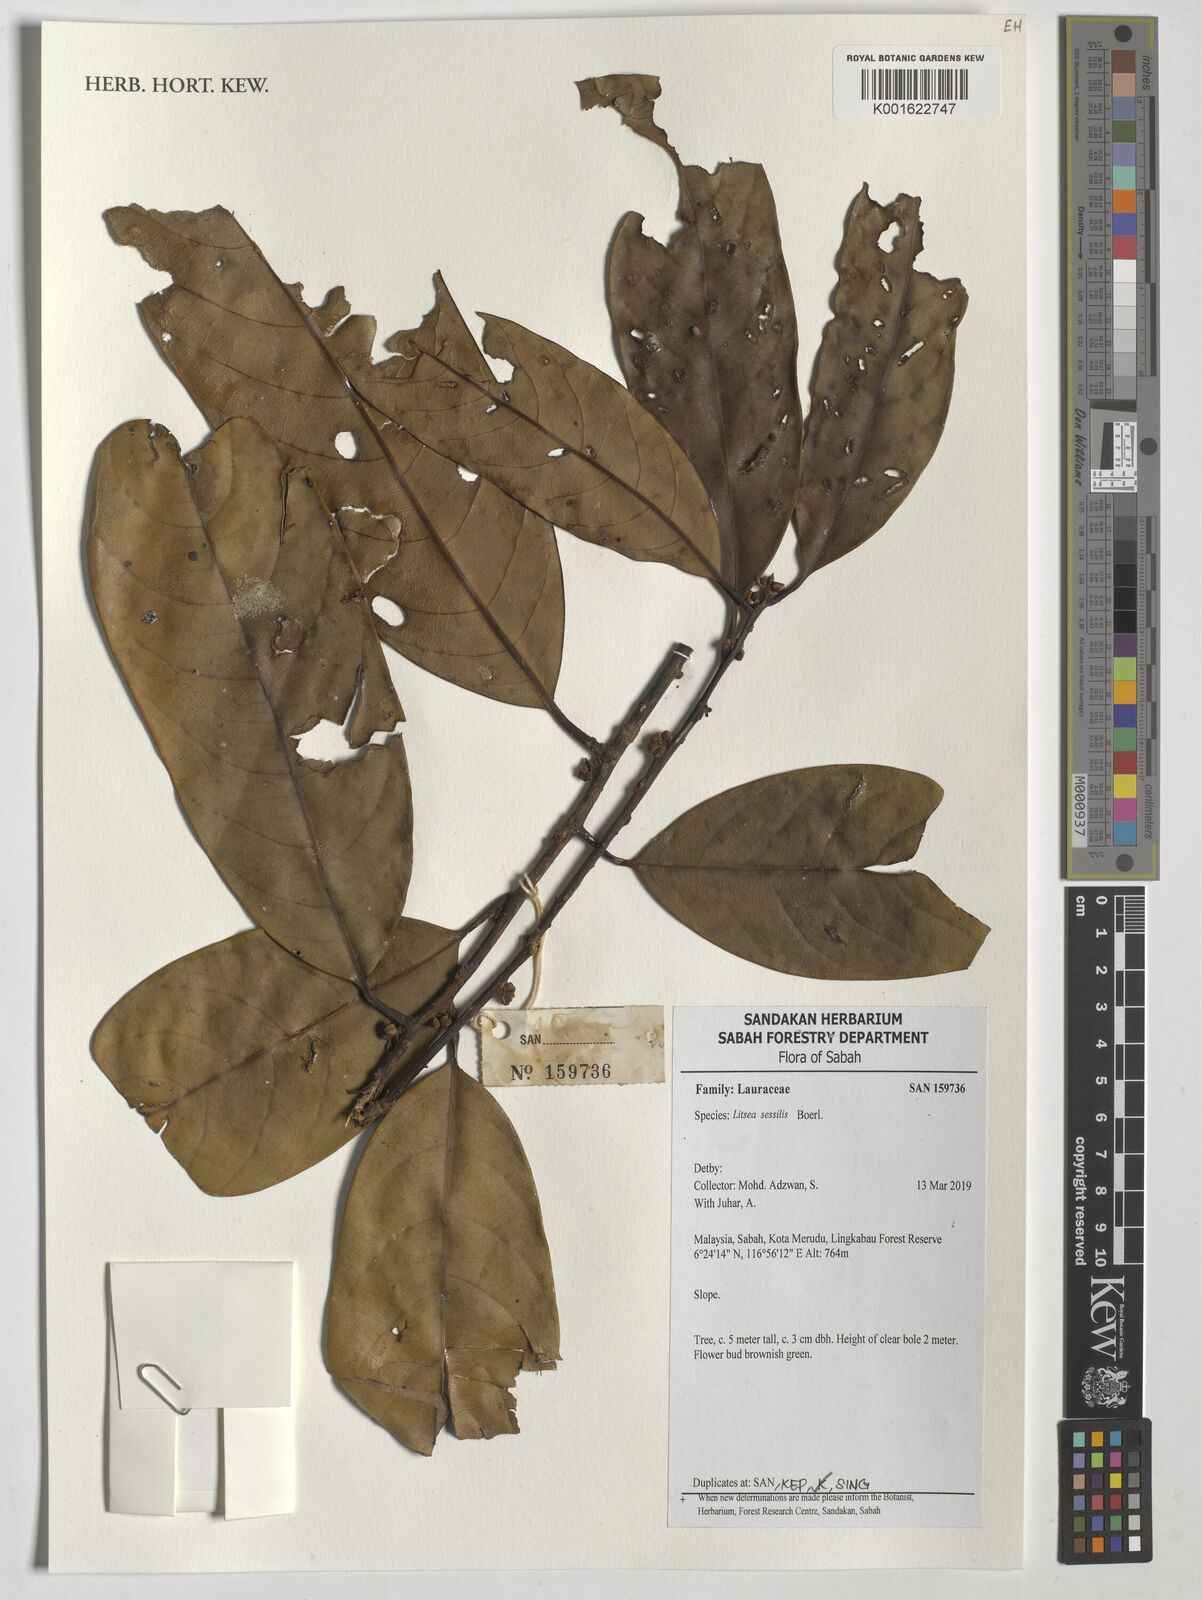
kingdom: Plantae
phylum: Tracheophyta
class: Magnoliopsida
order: Laurales
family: Lauraceae
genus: Litsea
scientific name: Litsea sessilis
